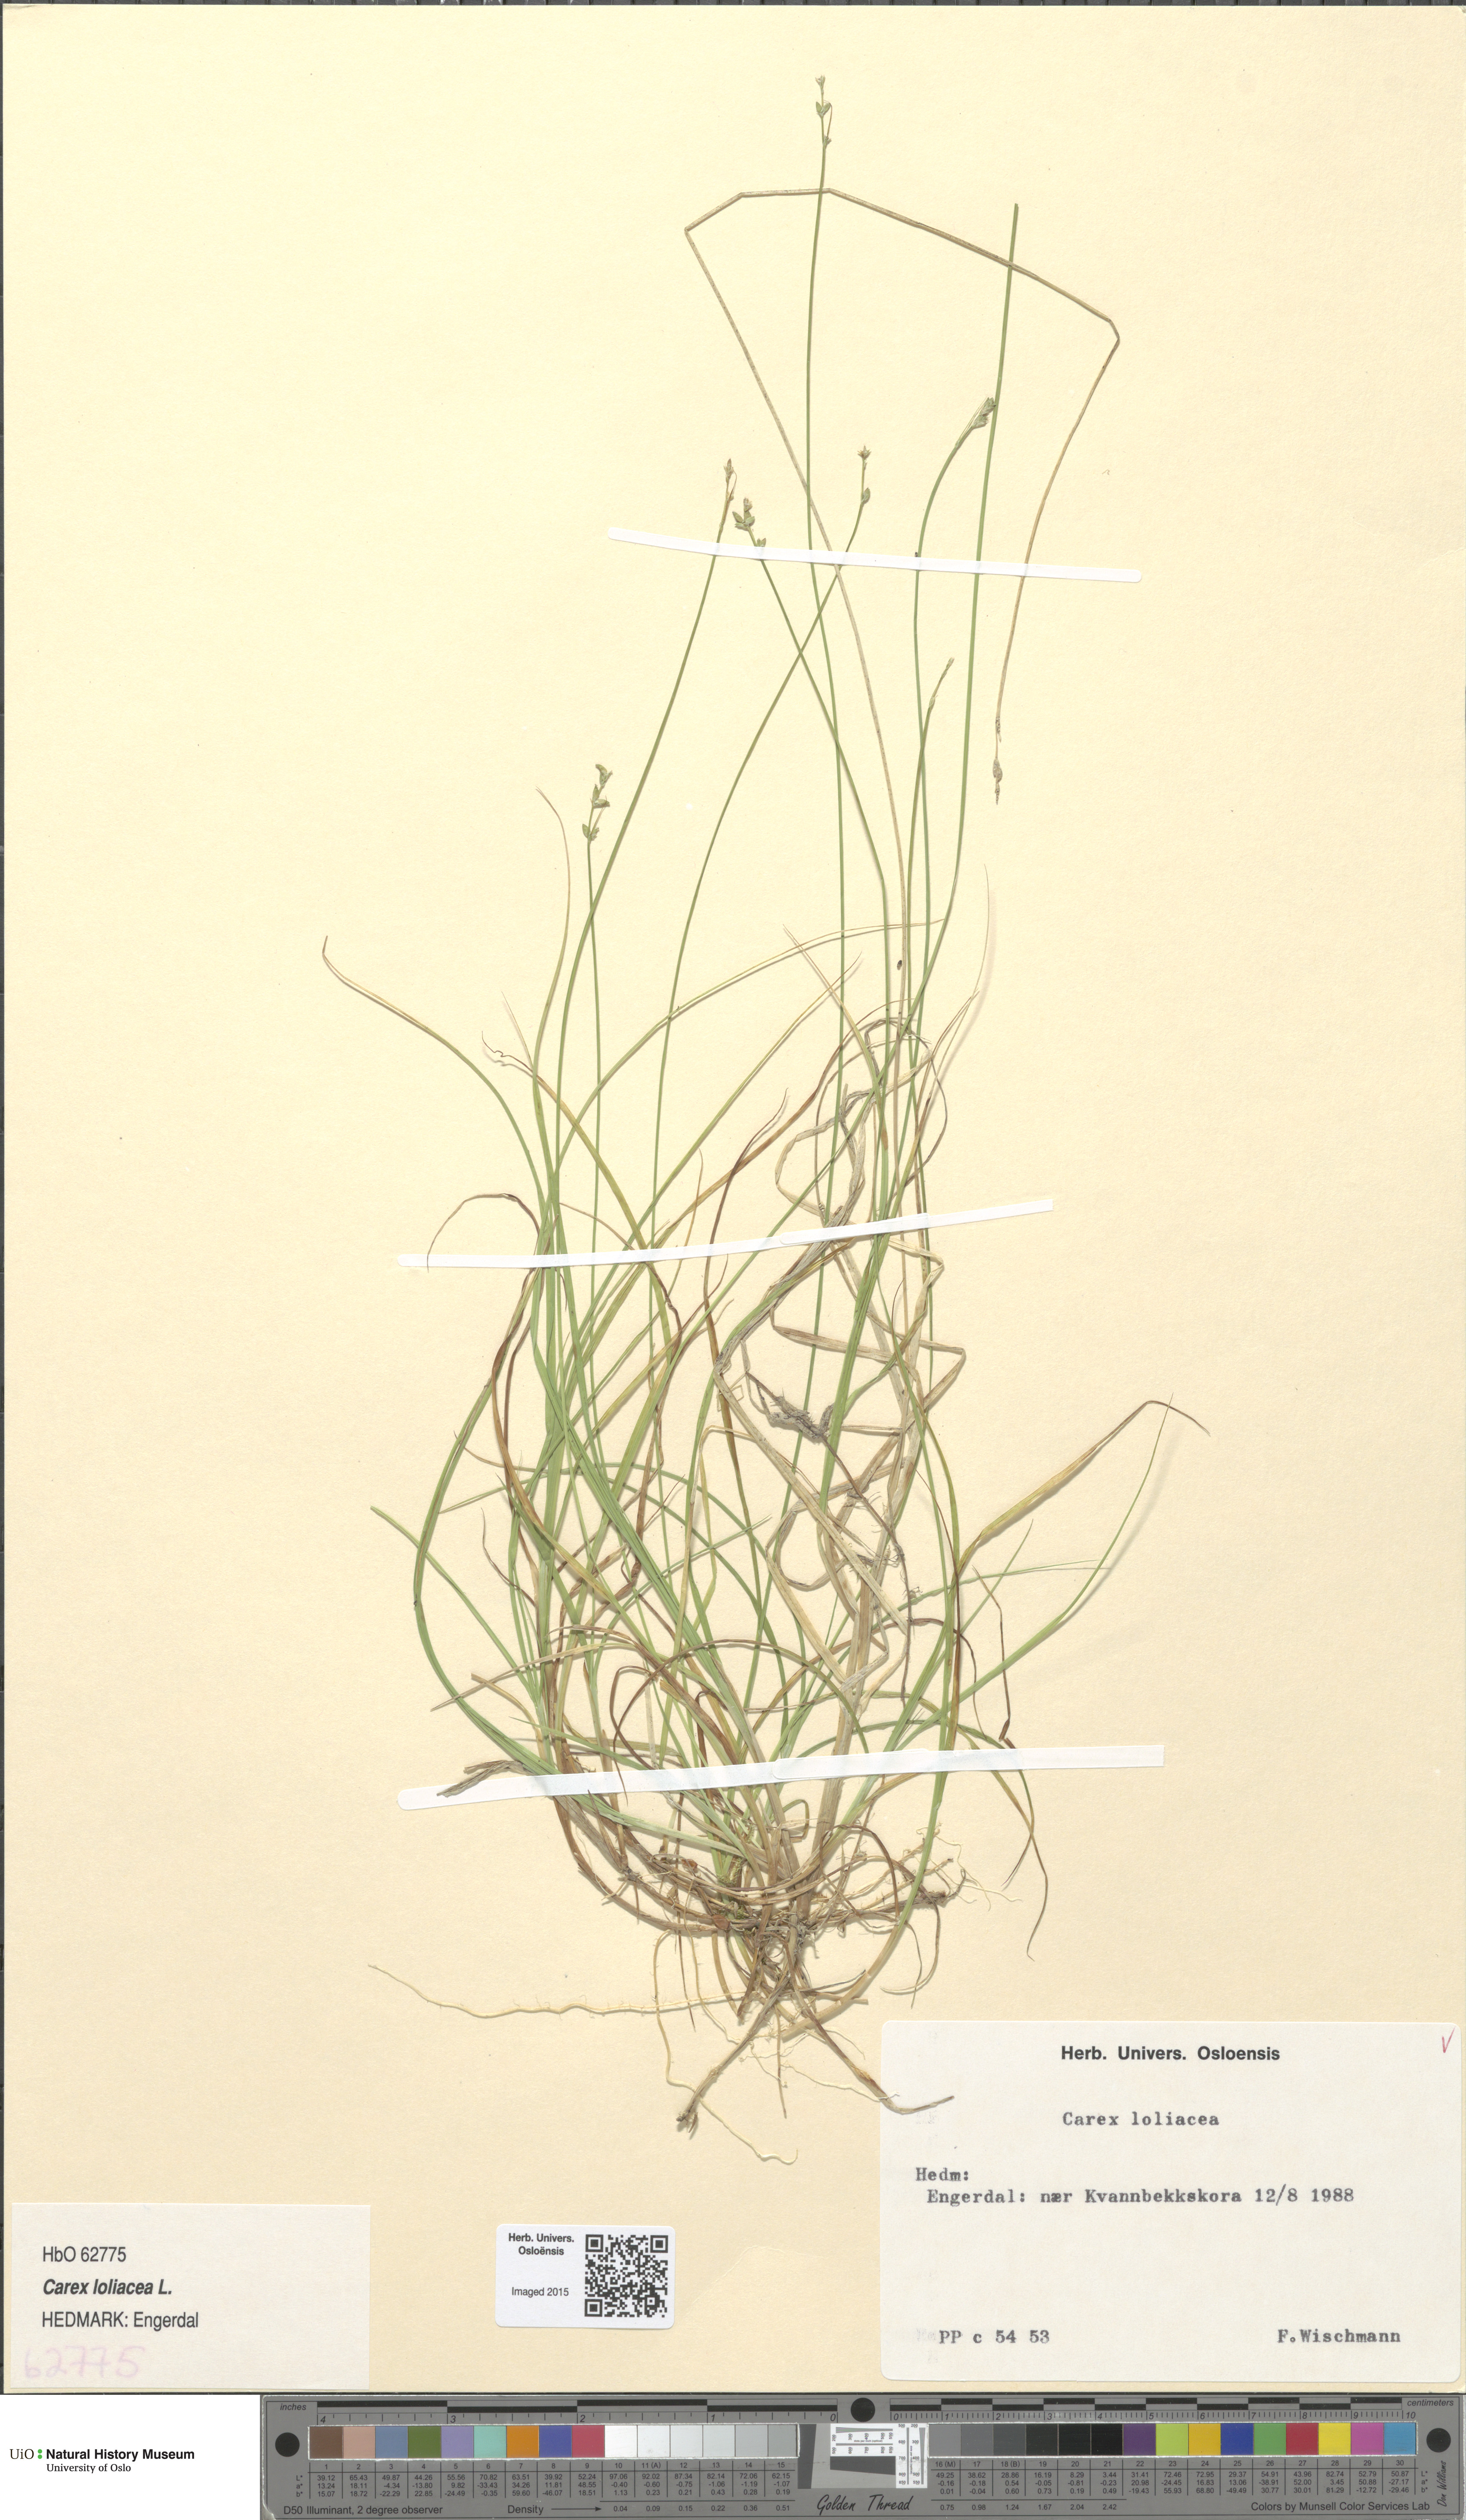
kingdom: Plantae
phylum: Tracheophyta
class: Liliopsida
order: Poales
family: Cyperaceae
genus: Carex
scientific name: Carex loliacea
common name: Ryegrass sedge
